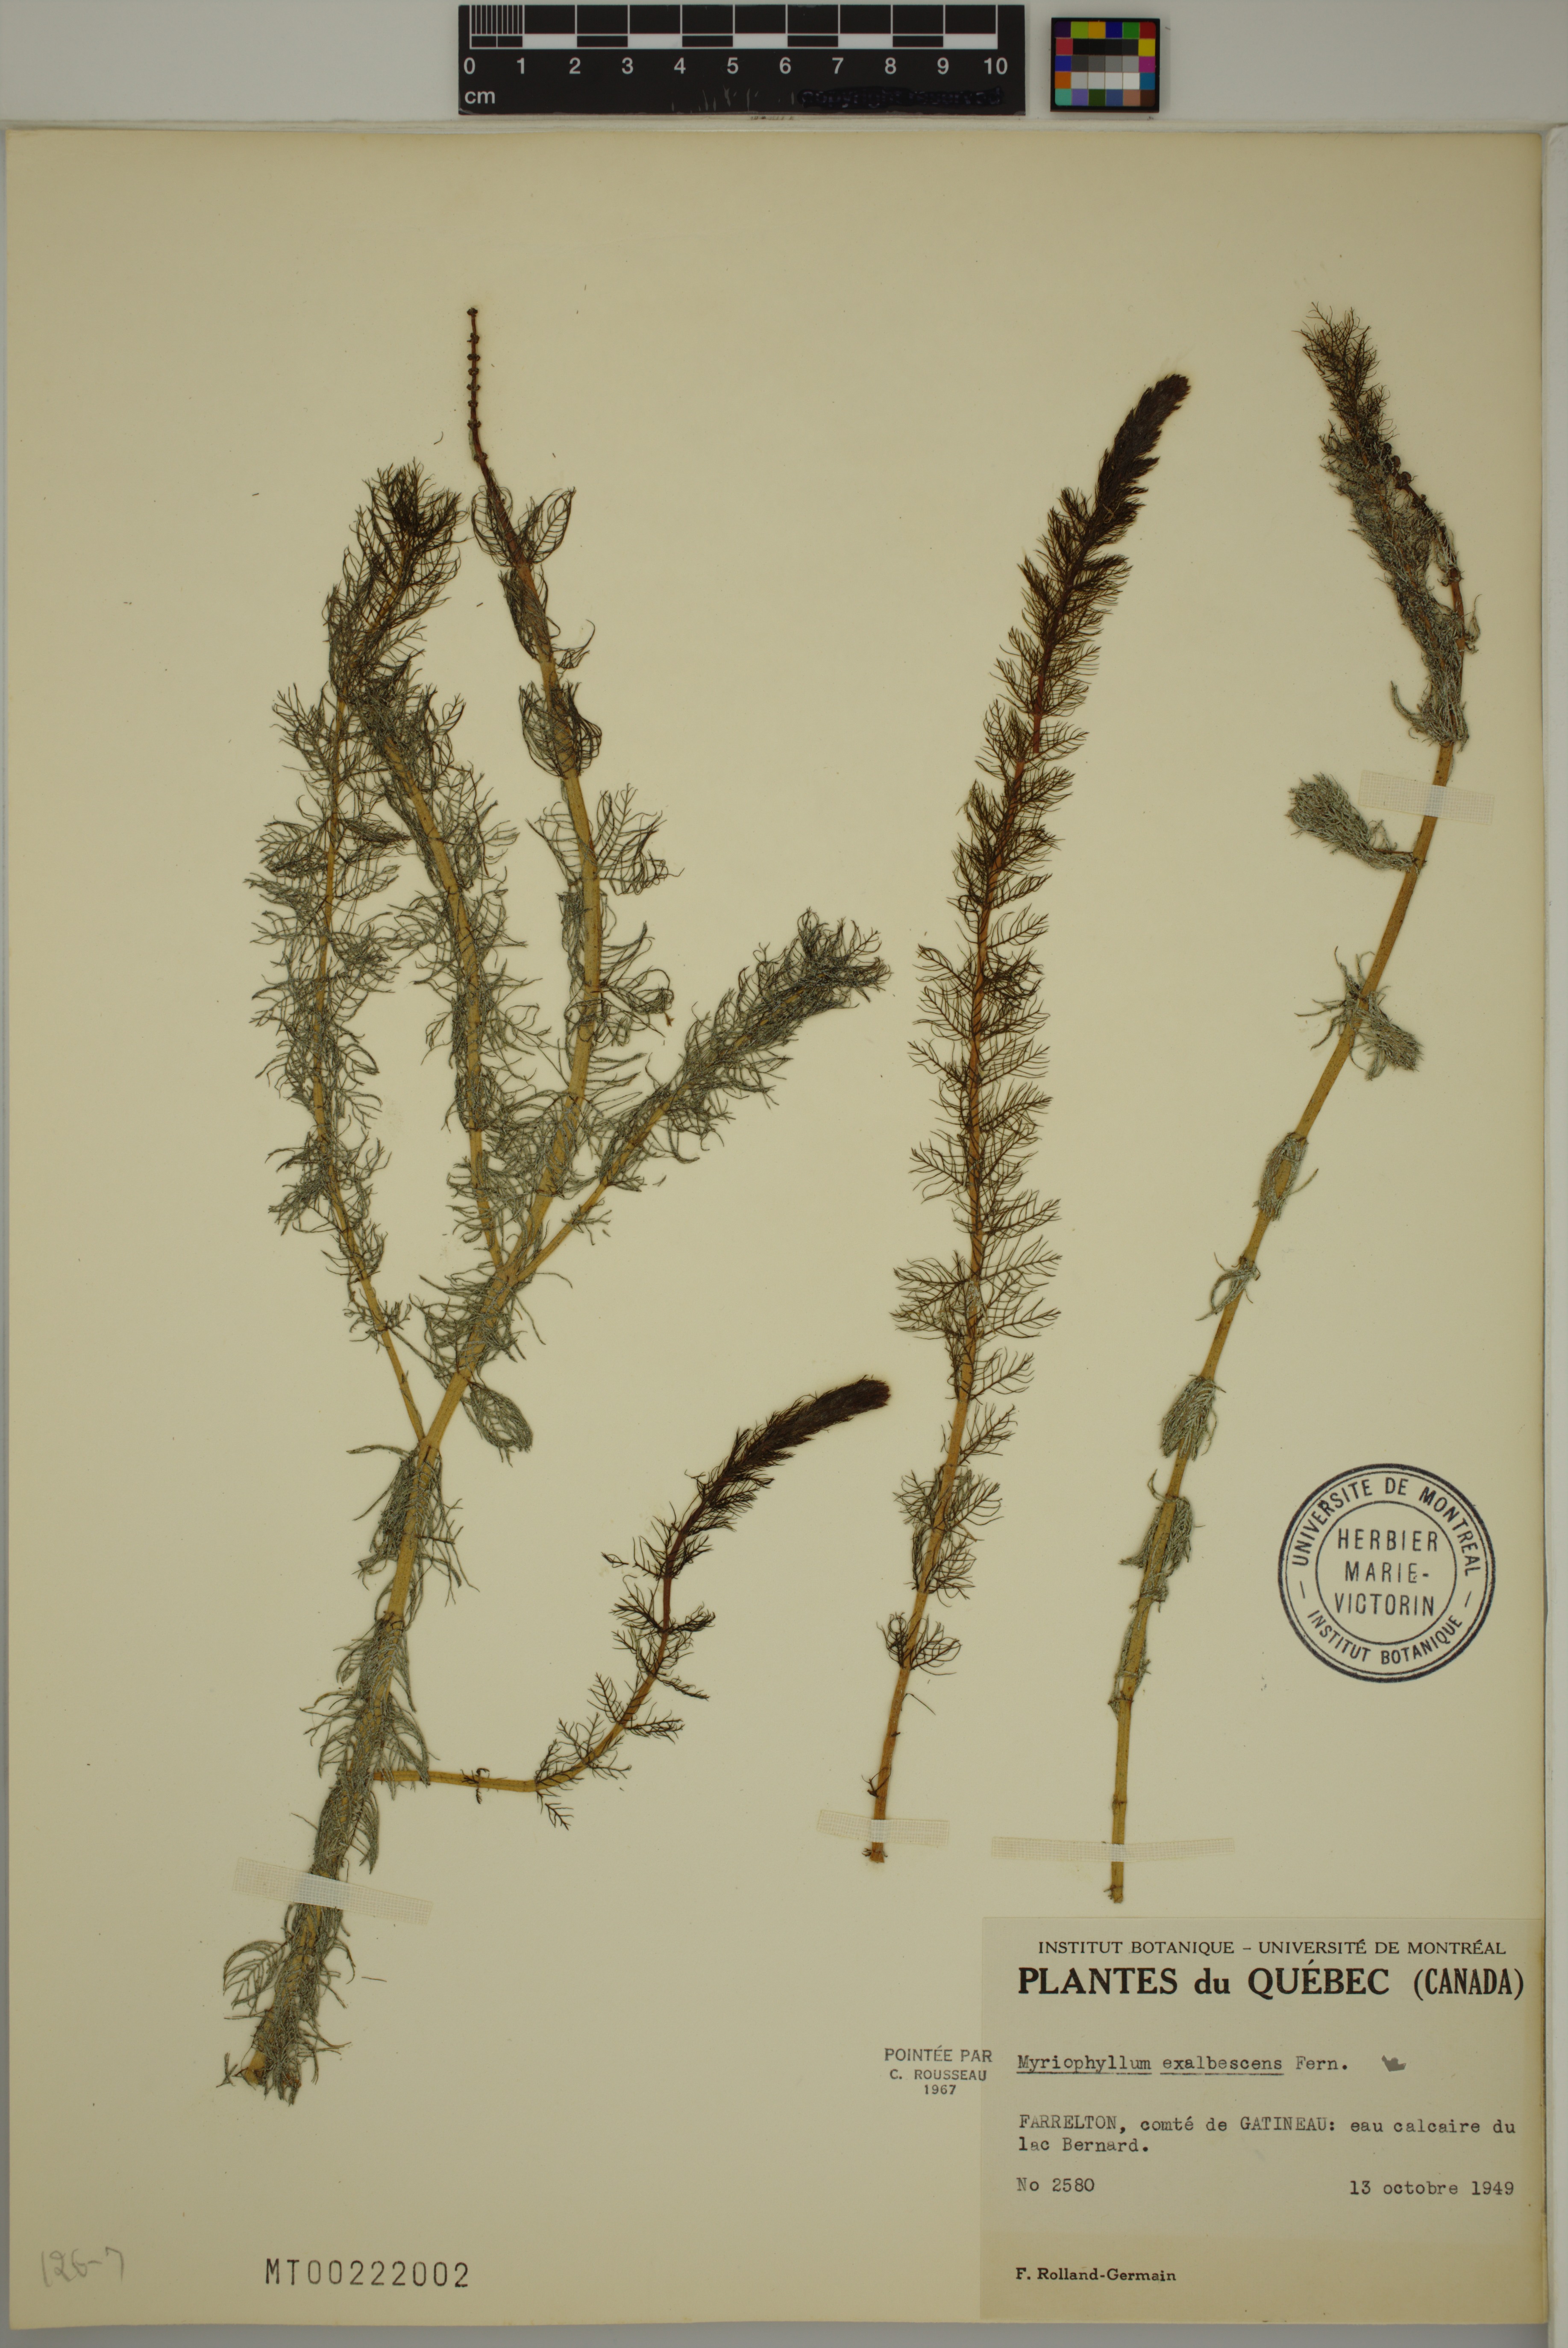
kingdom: Plantae
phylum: Tracheophyta
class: Magnoliopsida
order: Saxifragales
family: Haloragaceae
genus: Myriophyllum
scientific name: Myriophyllum sibiricum
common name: Siberian water-milfoil
